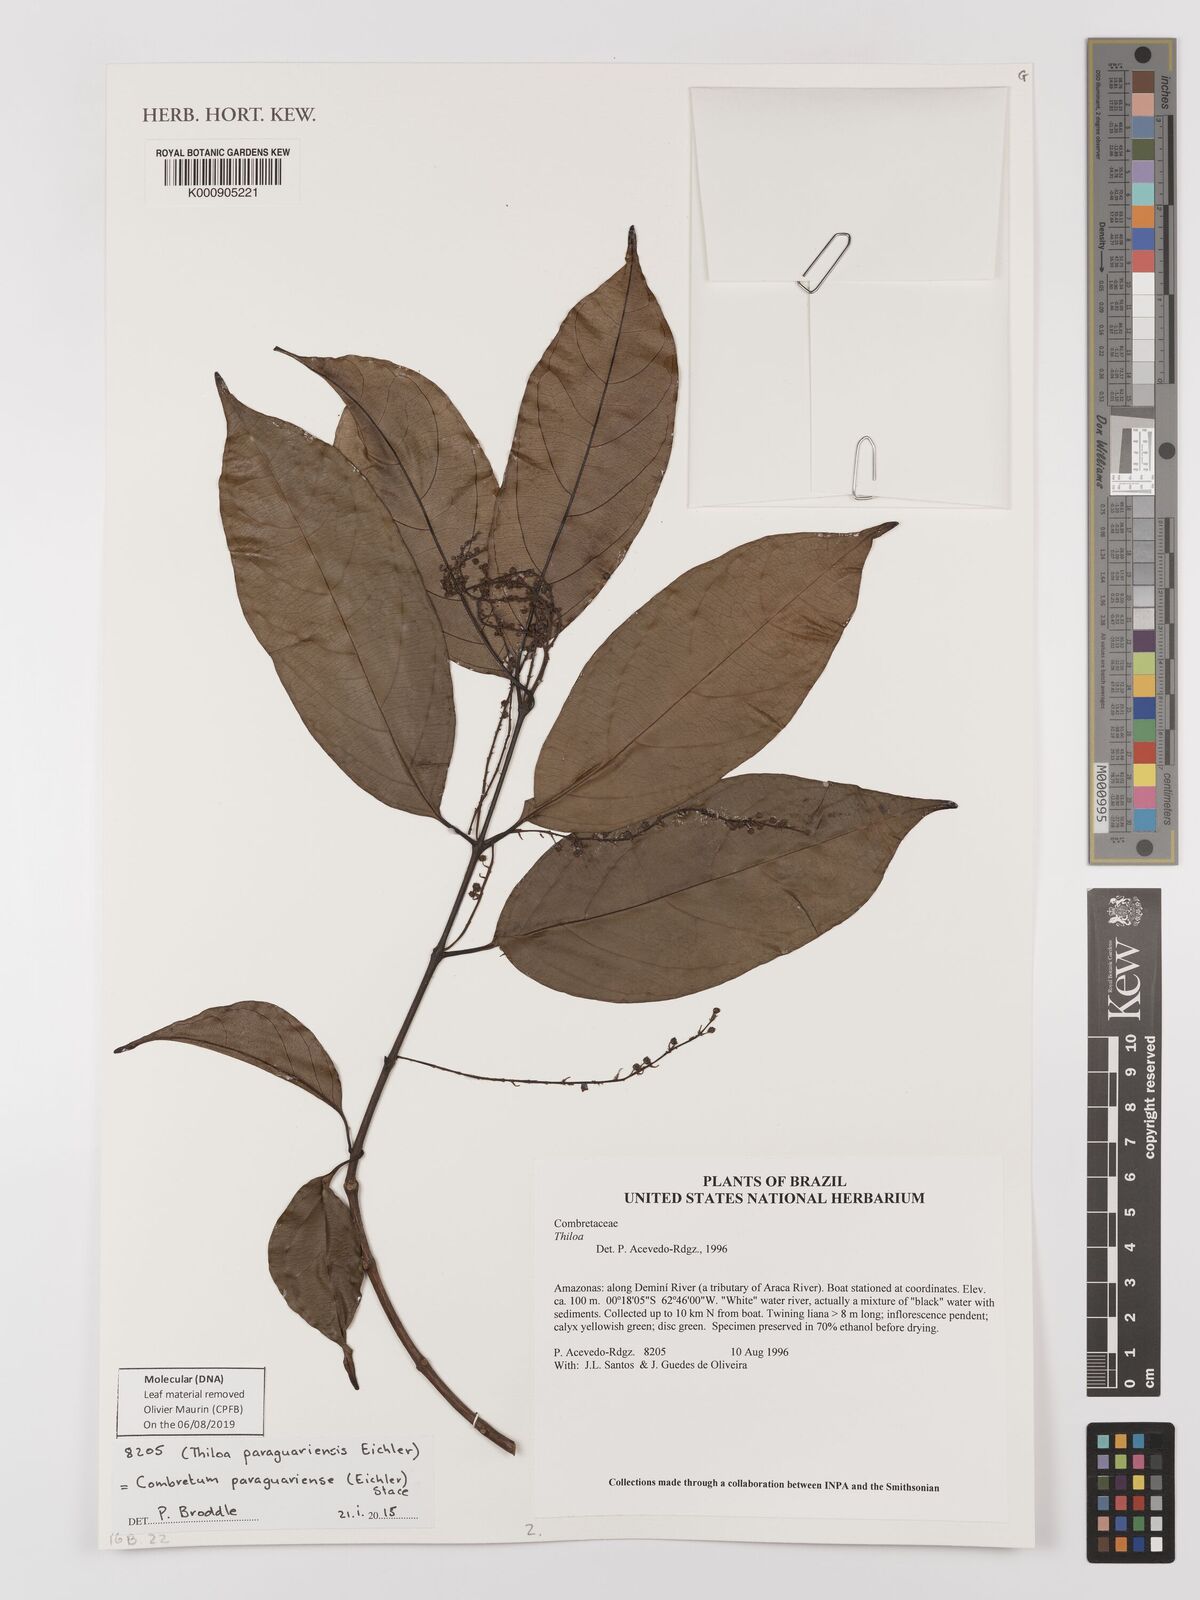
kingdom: Plantae
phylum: Tracheophyta
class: Magnoliopsida
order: Myrtales
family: Combretaceae
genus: Combretum
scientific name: Combretum paraguariense
